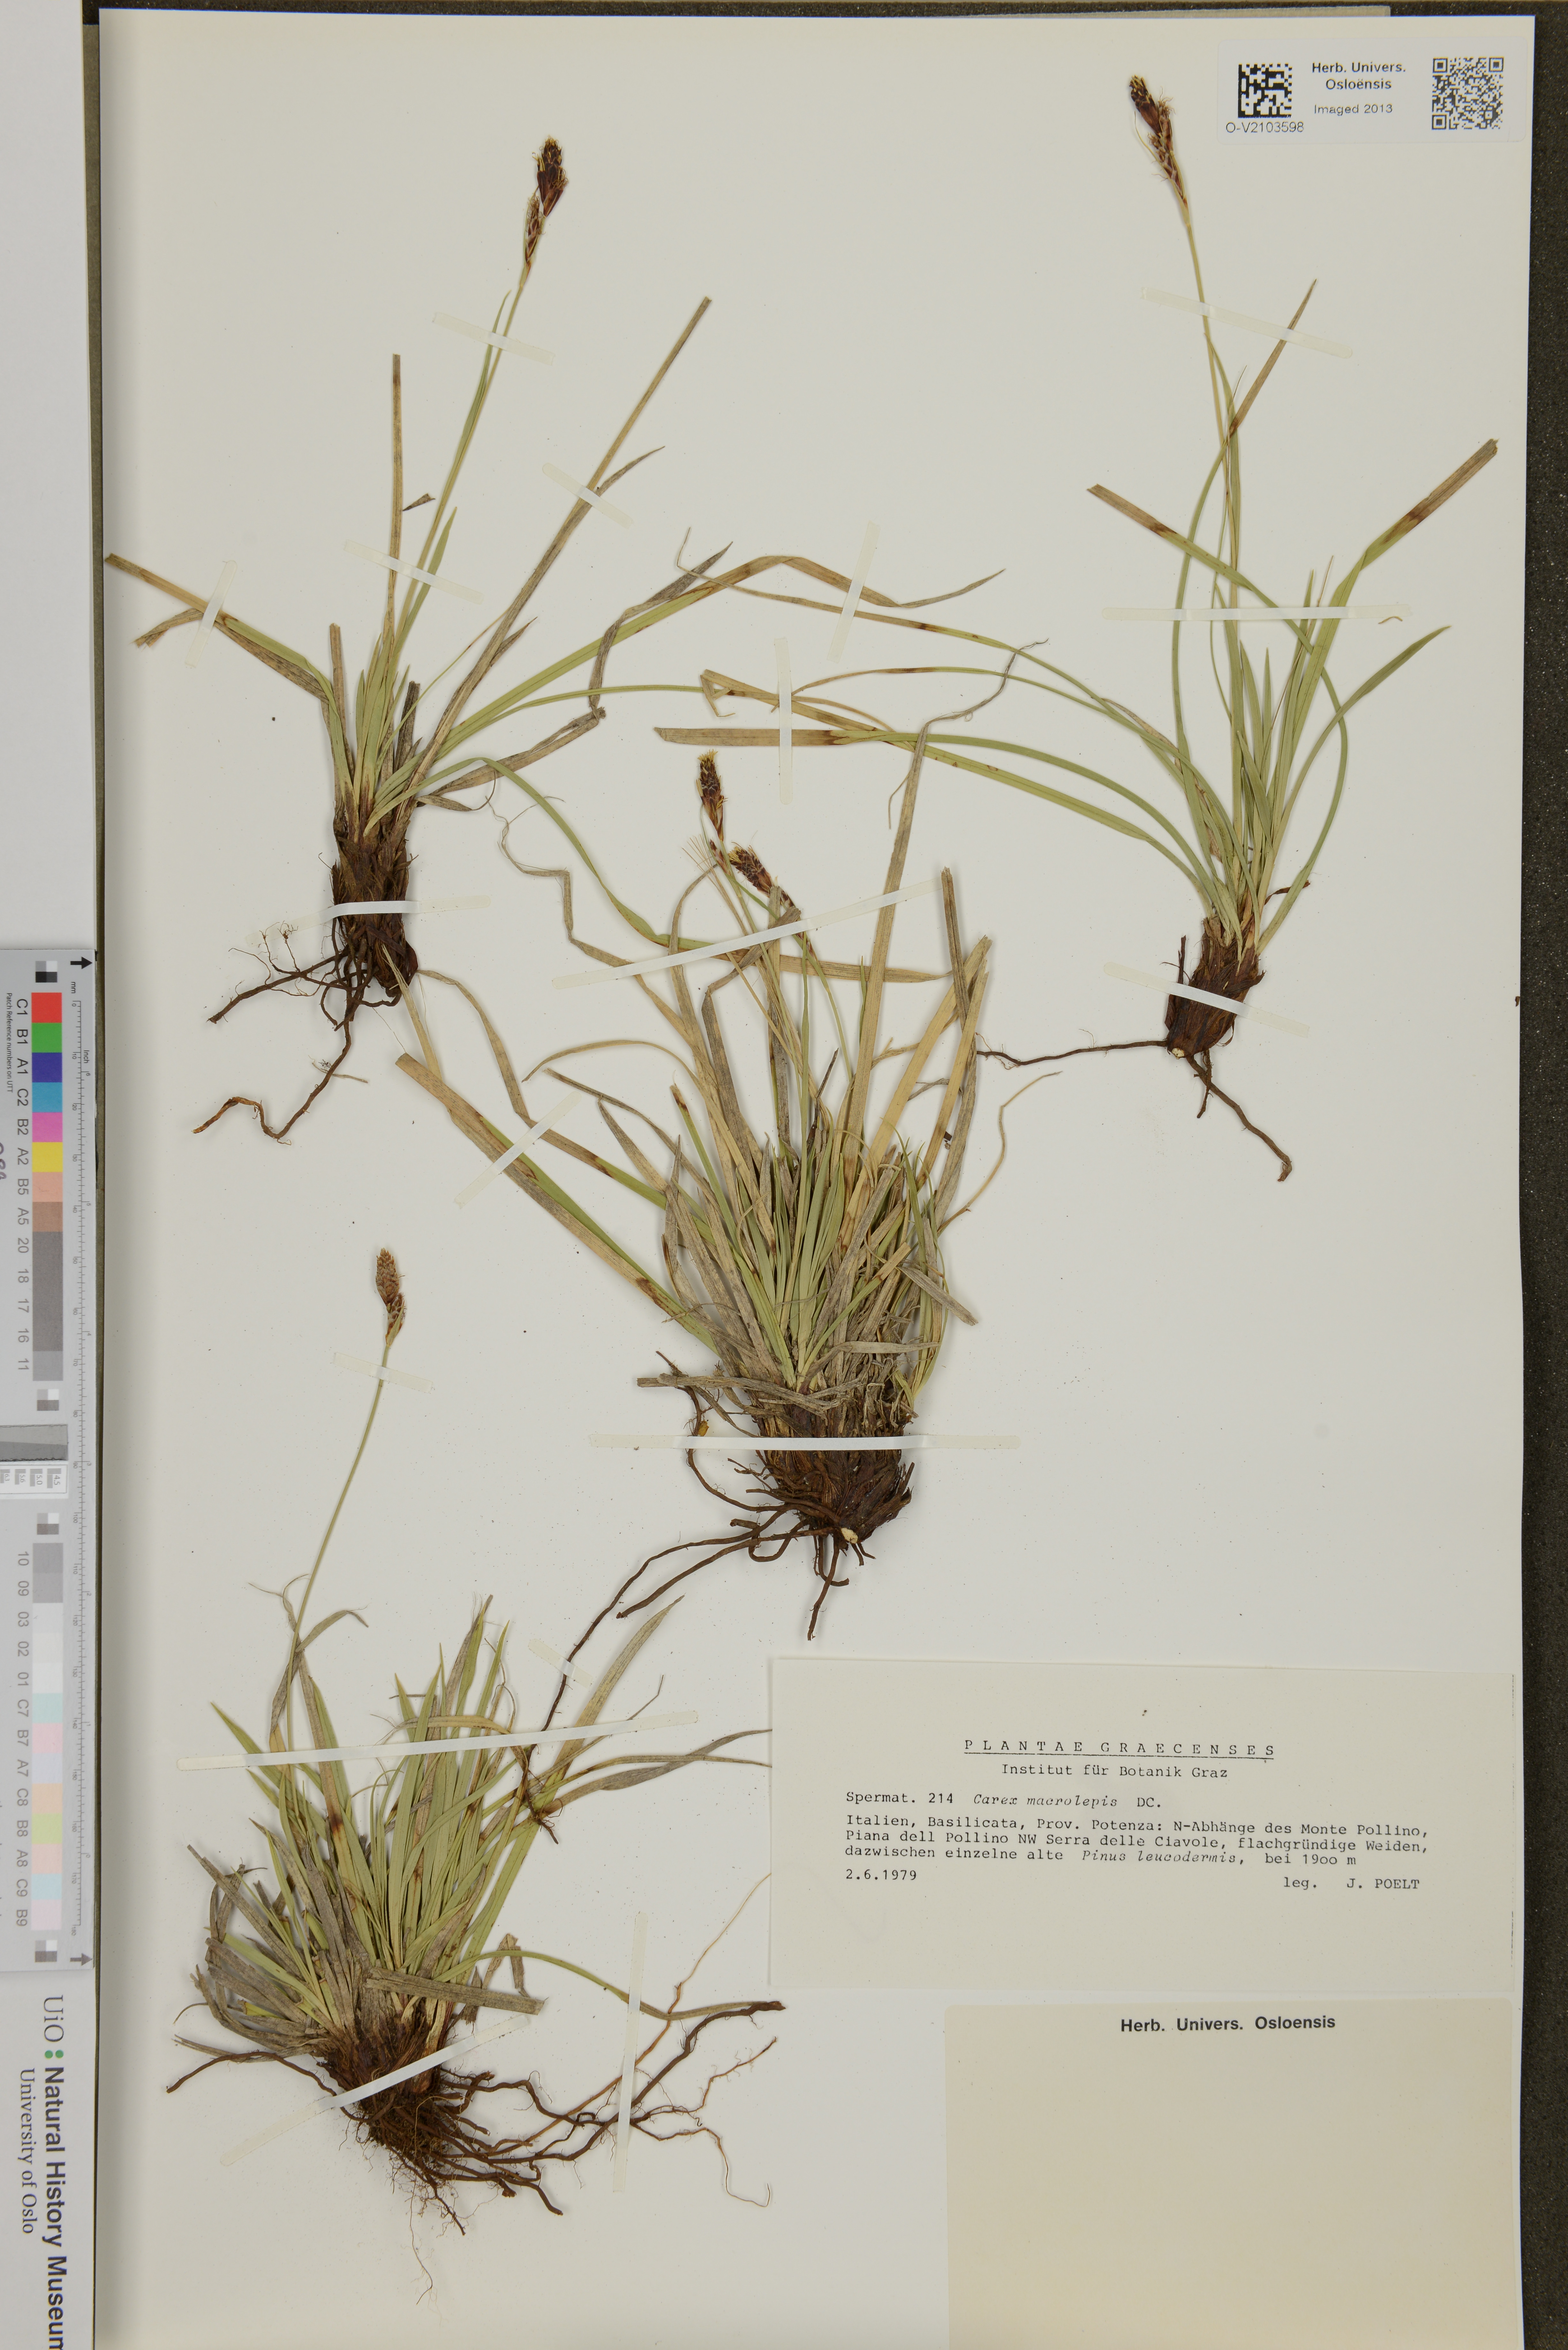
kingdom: Plantae
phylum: Tracheophyta
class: Liliopsida
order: Poales
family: Cyperaceae
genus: Carex
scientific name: Carex macrolepis
